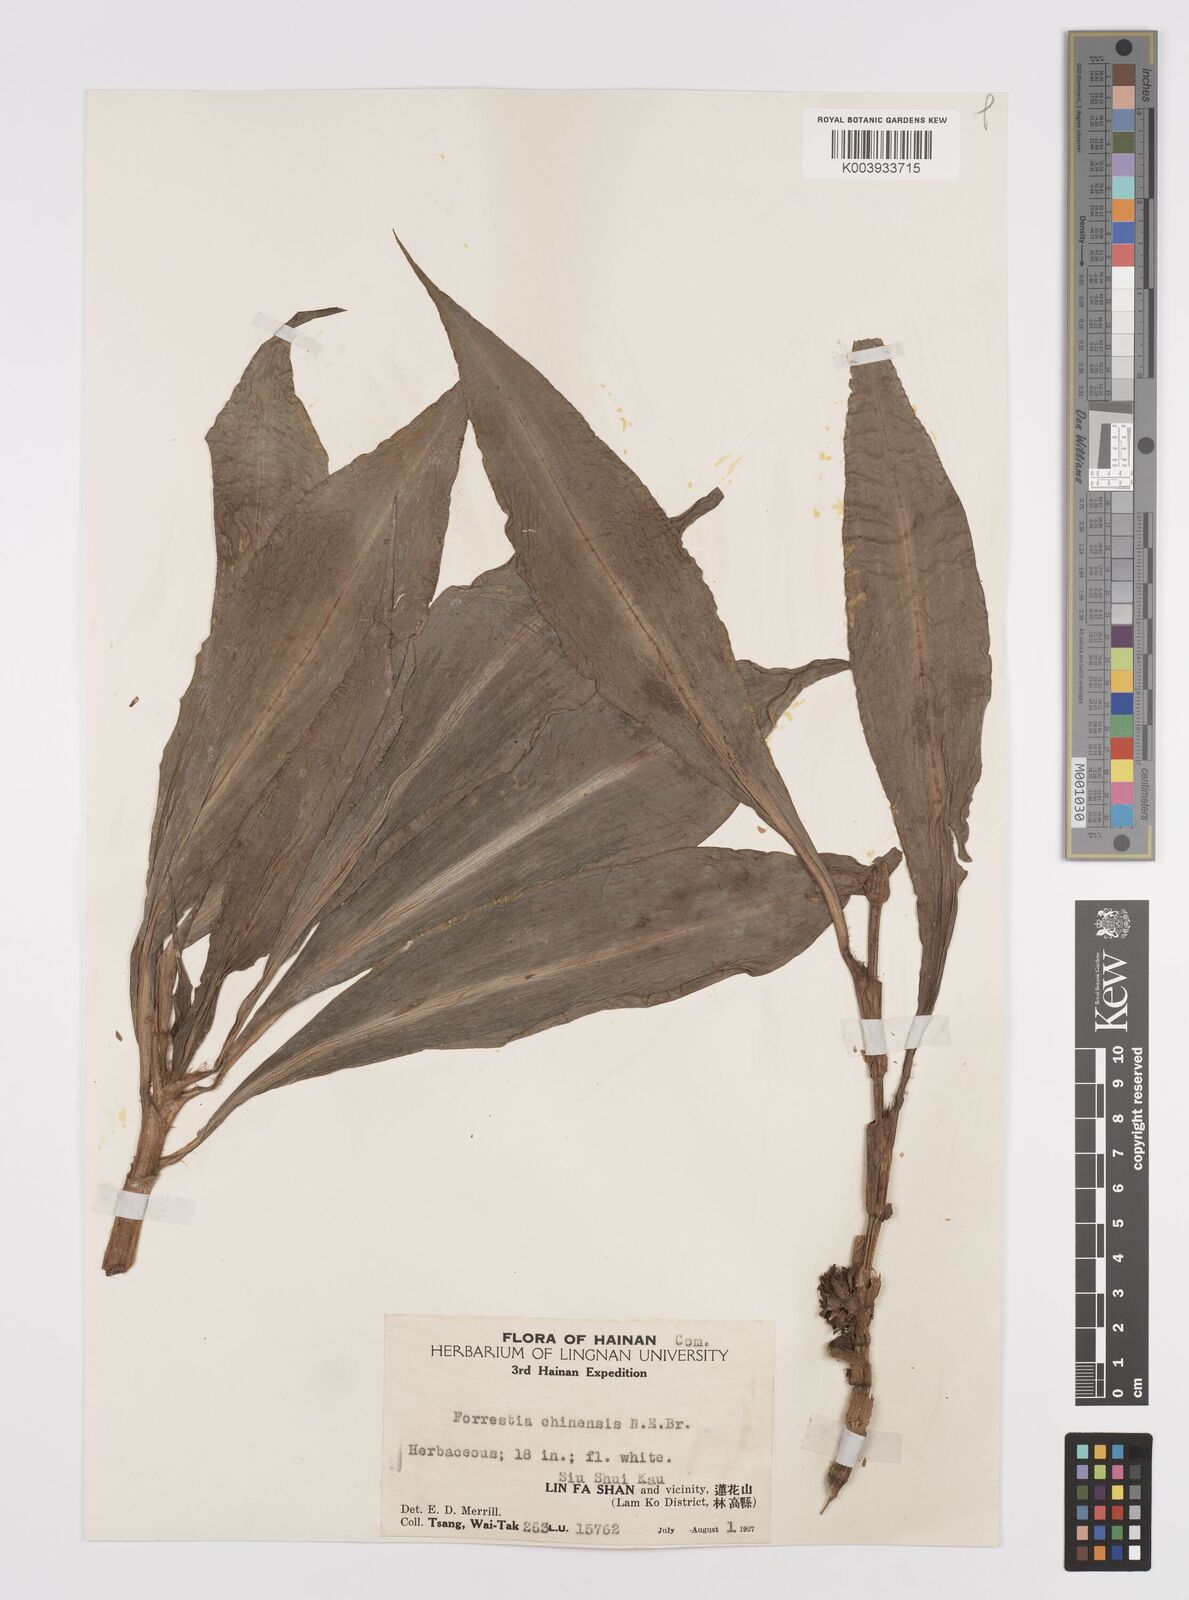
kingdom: Plantae
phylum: Tracheophyta
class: Liliopsida
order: Commelinales
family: Commelinaceae
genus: Amischotolype
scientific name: Amischotolype hispida
